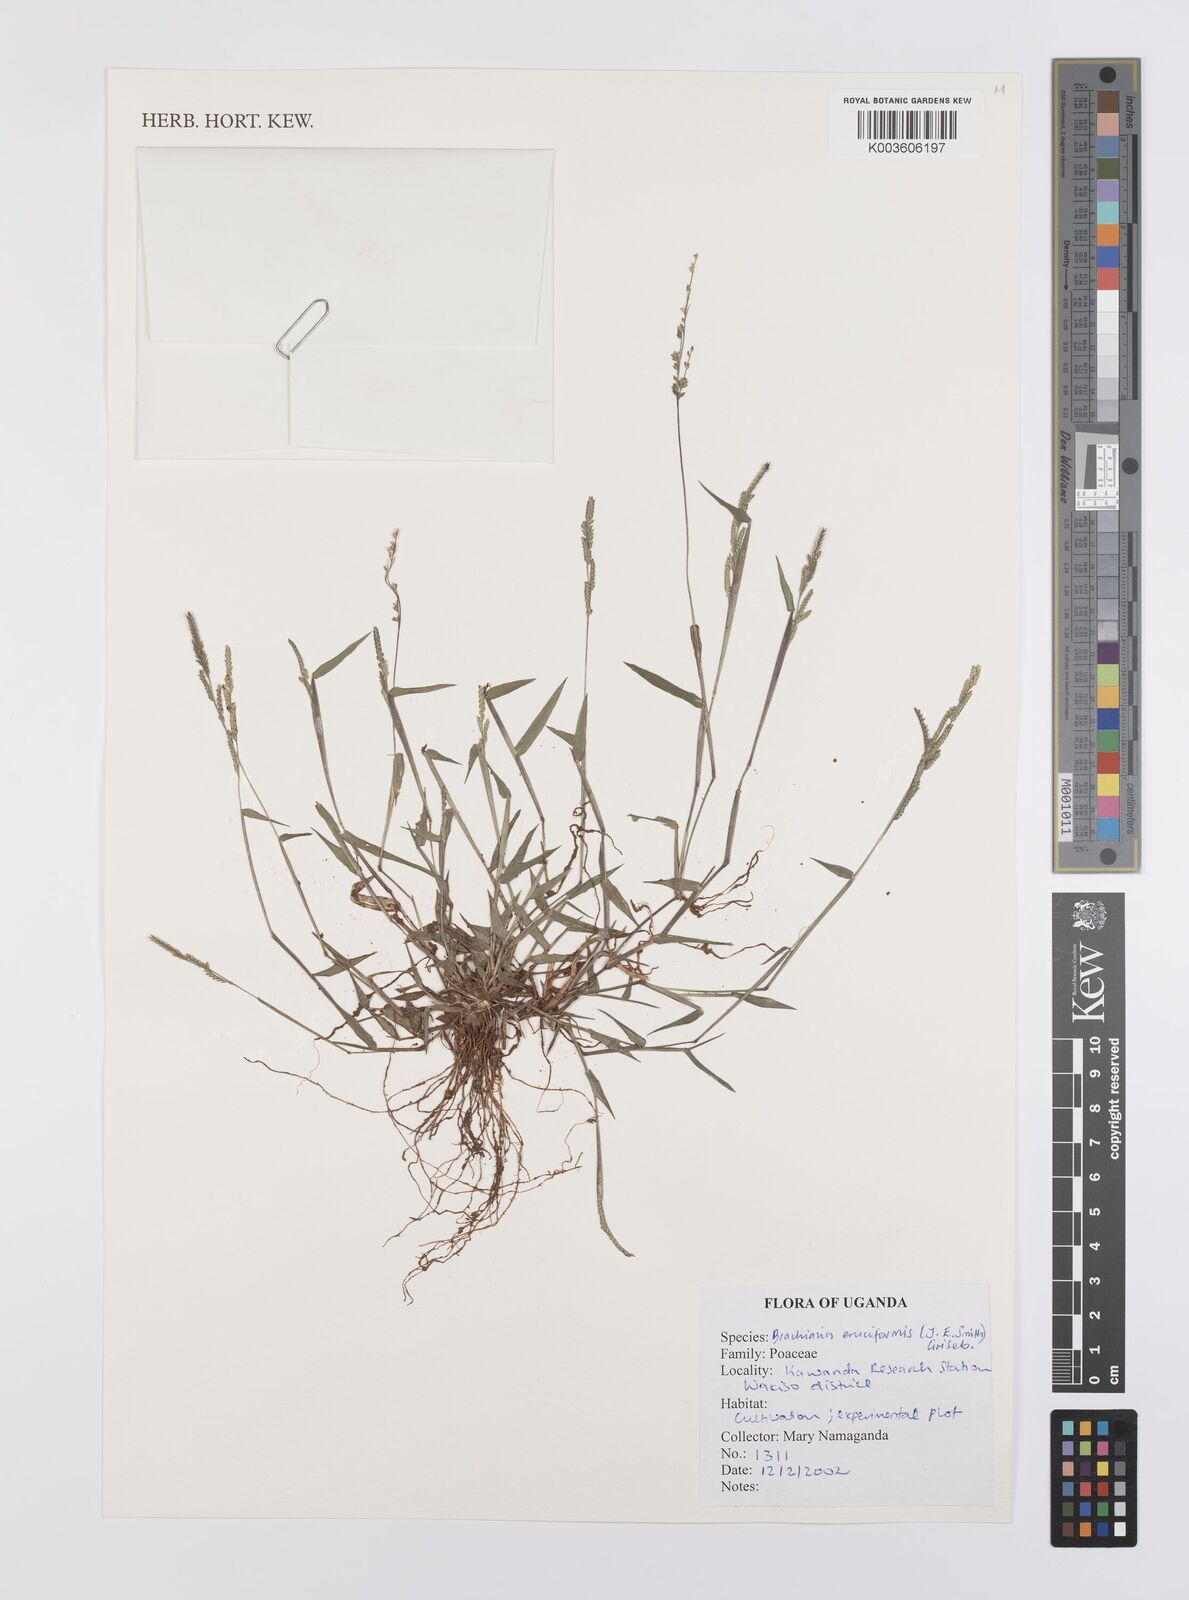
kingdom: Plantae
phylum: Tracheophyta
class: Liliopsida
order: Poales
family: Poaceae
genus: Moorochloa
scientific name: Moorochloa eruciformis
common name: Sweet signalgrass
